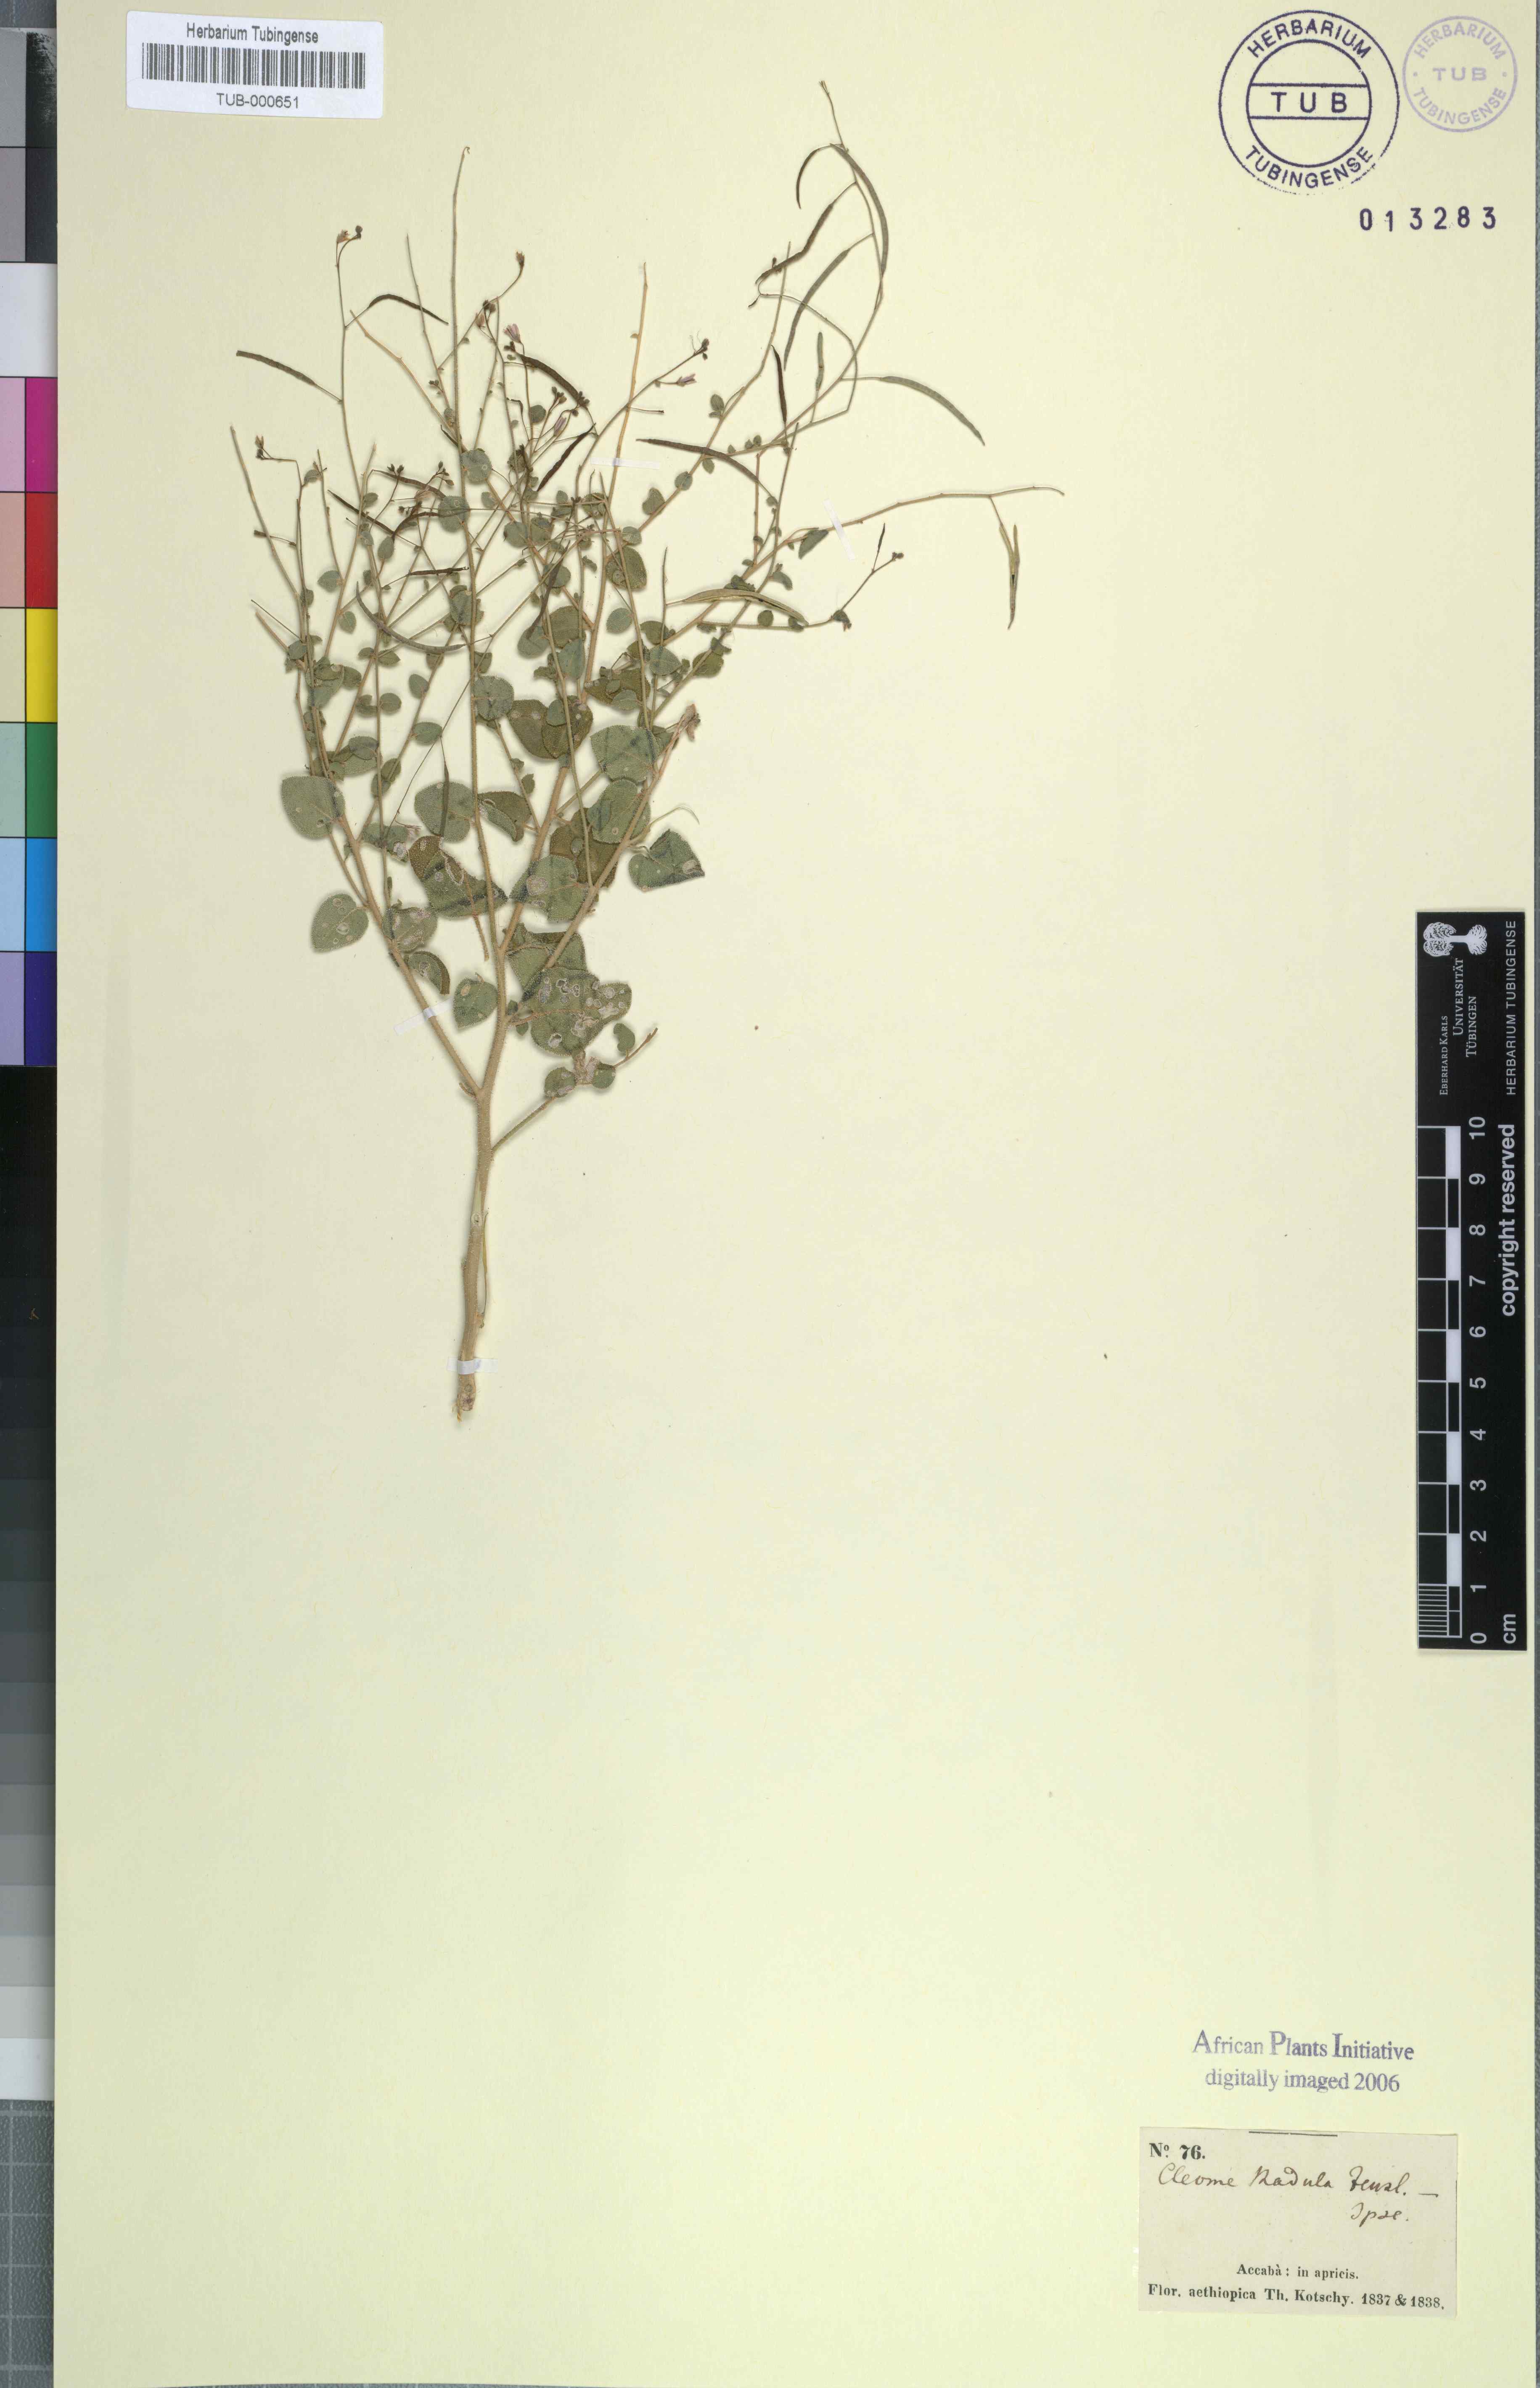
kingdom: Plantae
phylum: Tracheophyta
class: Magnoliopsida
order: Brassicales
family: Cleomaceae
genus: Gilgella
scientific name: Gilgella scaposa
